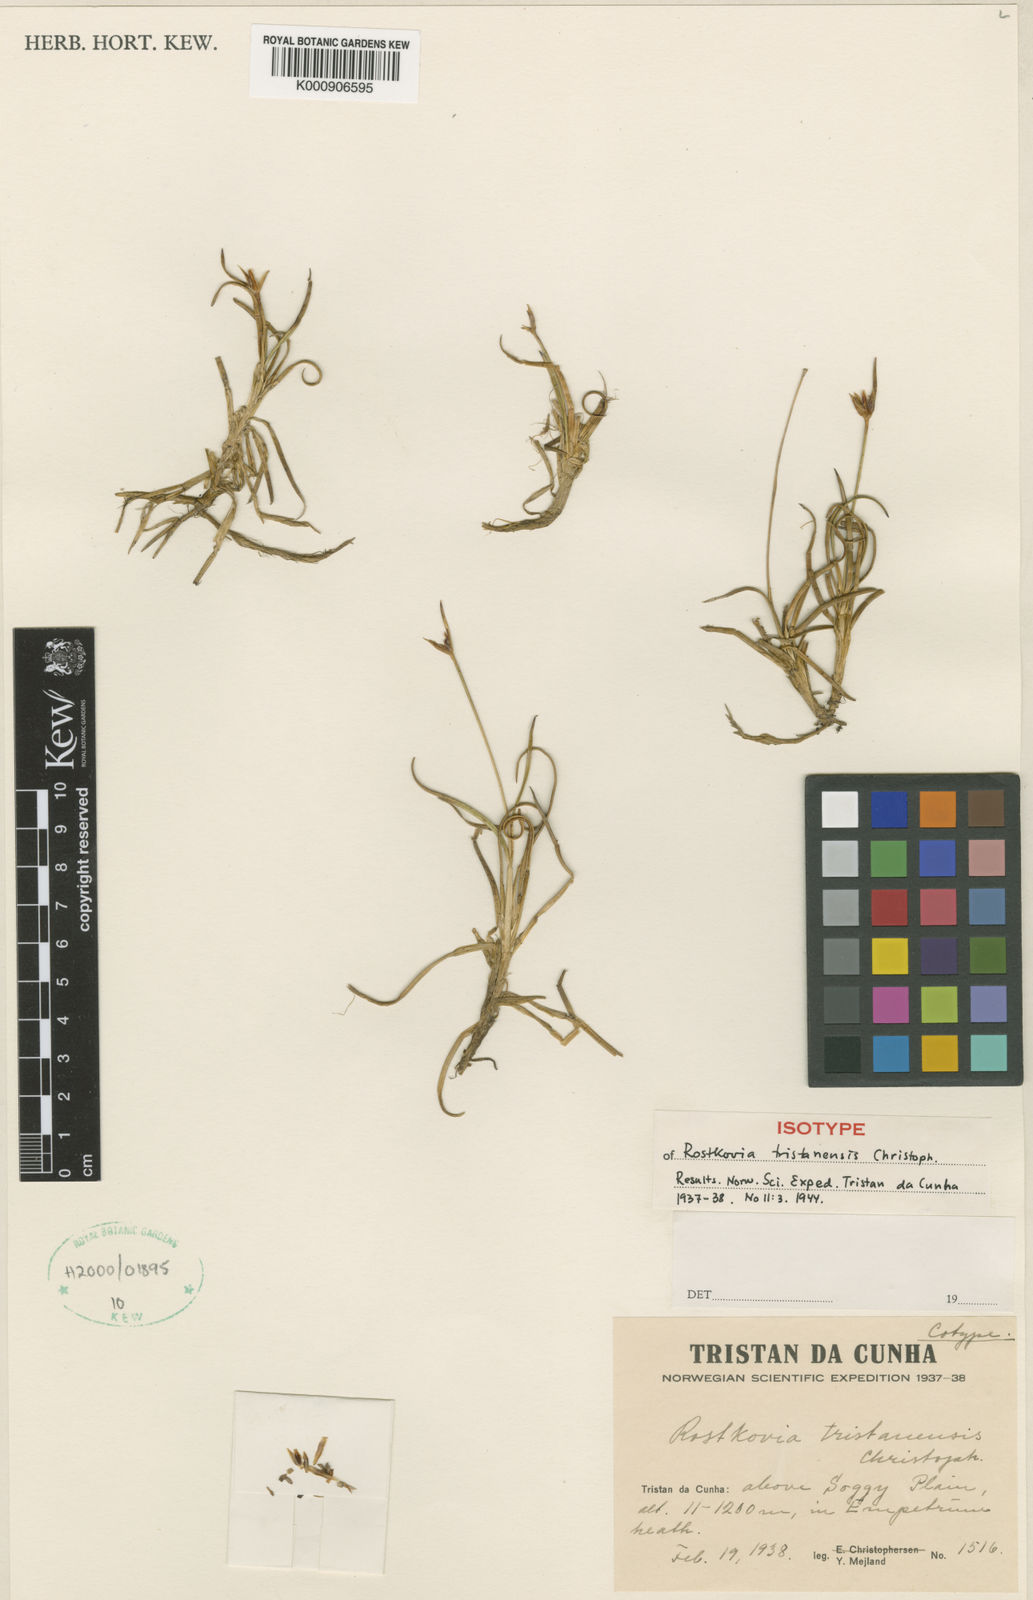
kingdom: Plantae
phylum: Tracheophyta
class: Liliopsida
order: Poales
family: Juncaceae
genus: Rostkovia
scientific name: Rostkovia tristanensis
